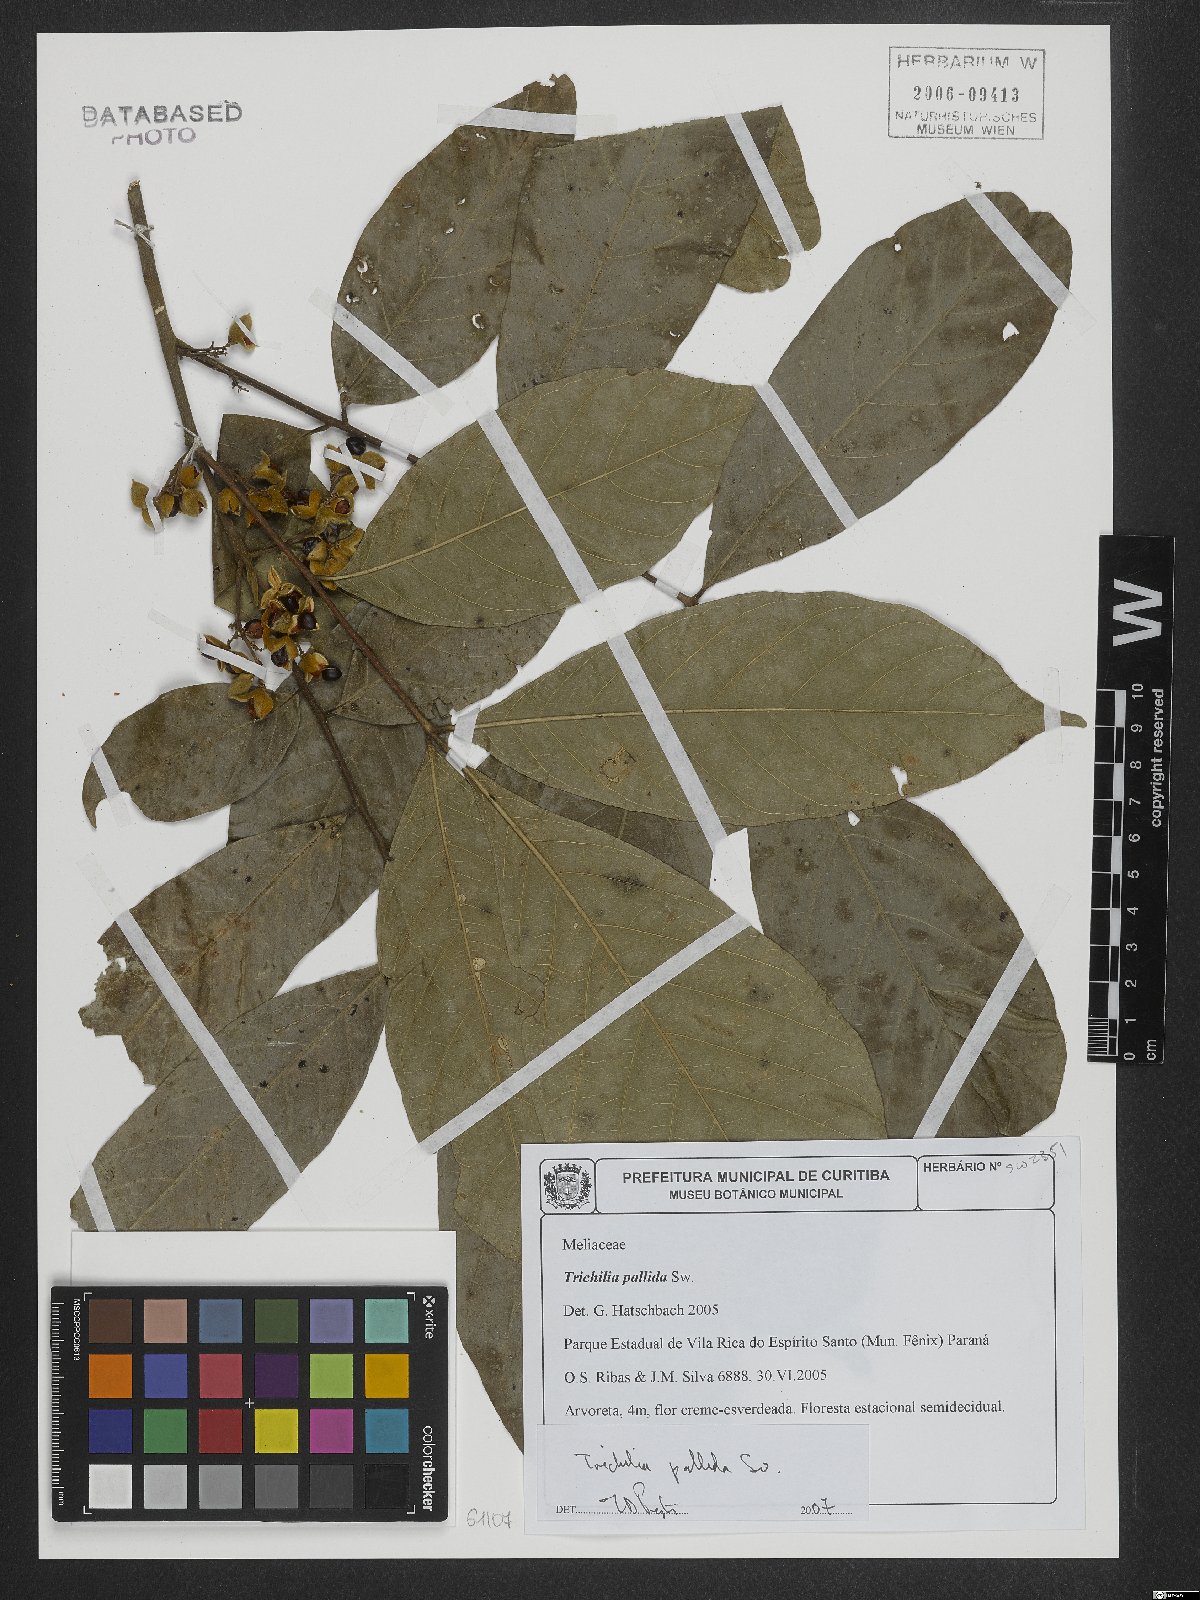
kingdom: Plantae
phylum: Tracheophyta
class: Magnoliopsida
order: Sapindales
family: Meliaceae
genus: Trichilia
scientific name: Trichilia pallida
